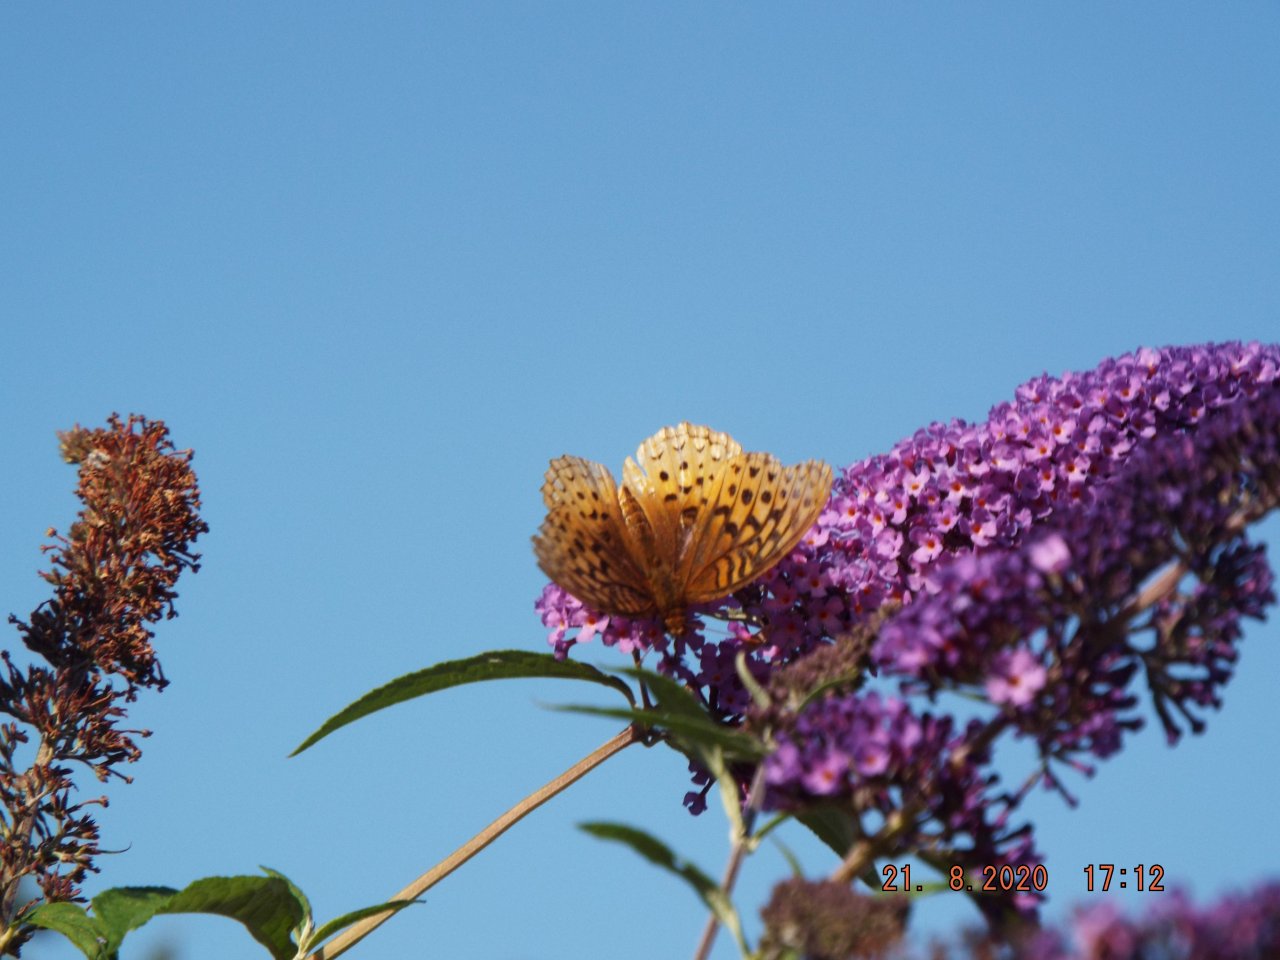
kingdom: Animalia
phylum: Arthropoda
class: Insecta
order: Lepidoptera
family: Nymphalidae
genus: Speyeria
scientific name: Speyeria cybele
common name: Great Spangled Fritillary
